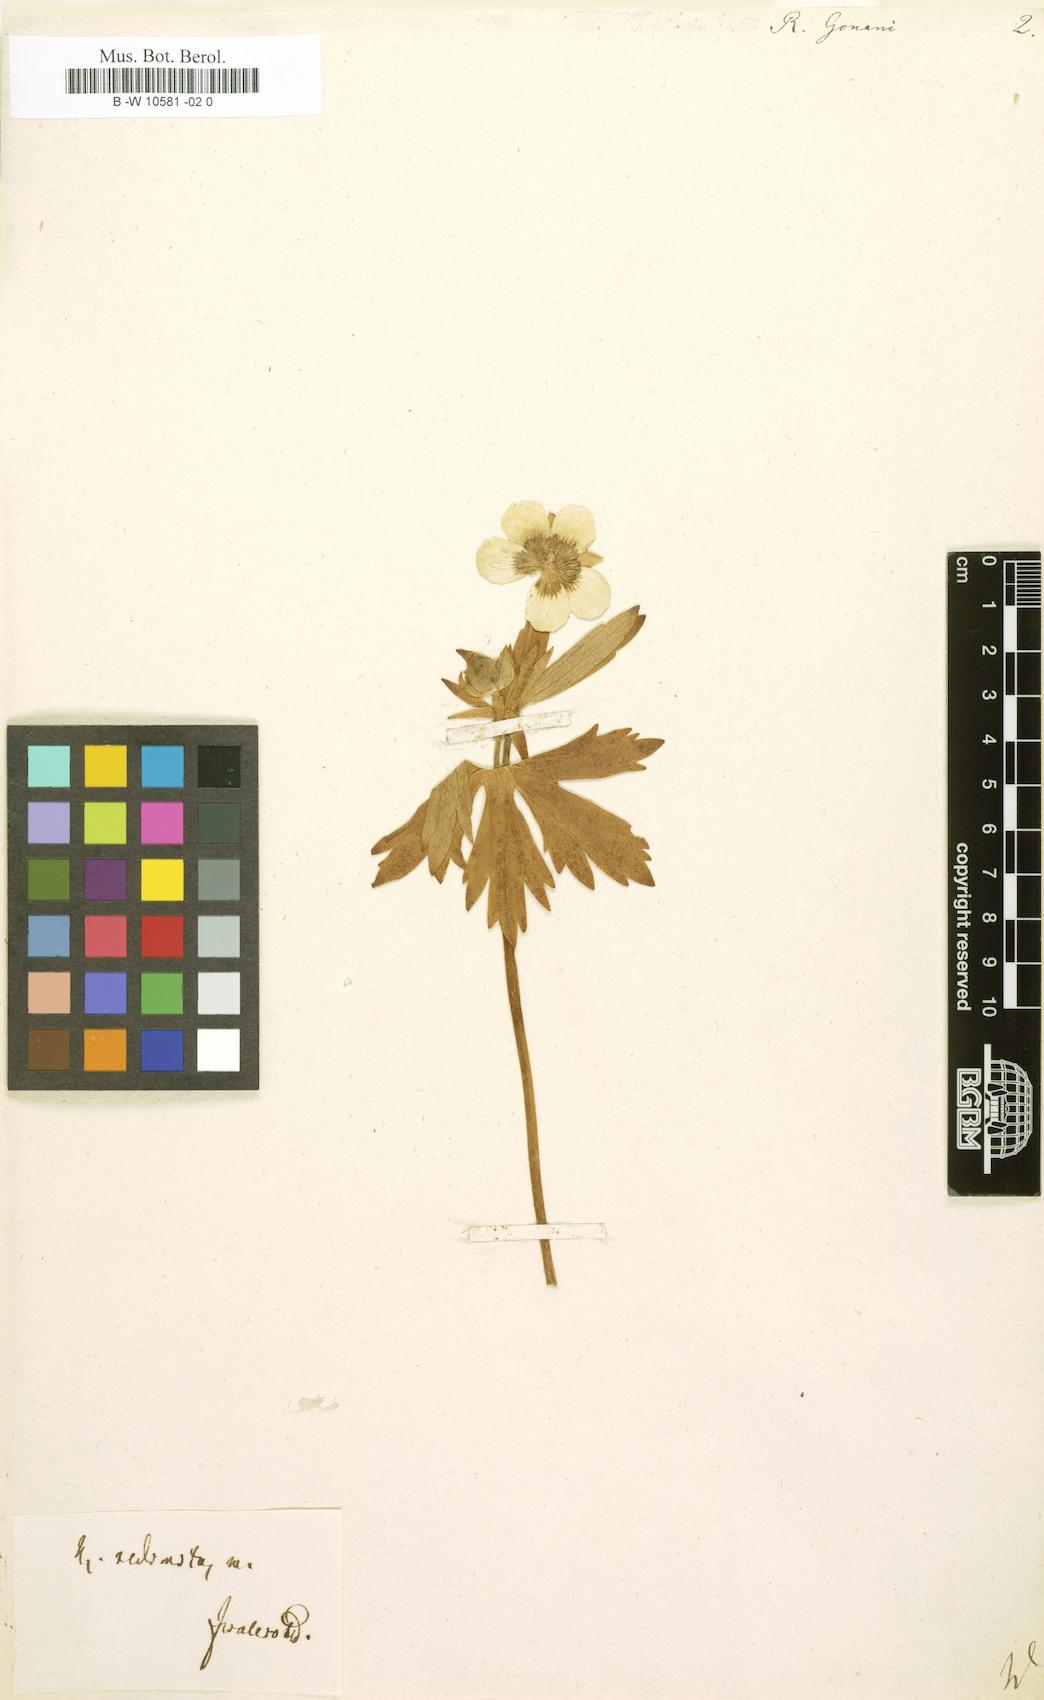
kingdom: Plantae
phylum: Tracheophyta
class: Magnoliopsida
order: Ranunculales
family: Ranunculaceae
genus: Ranunculus
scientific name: Ranunculus gouani
